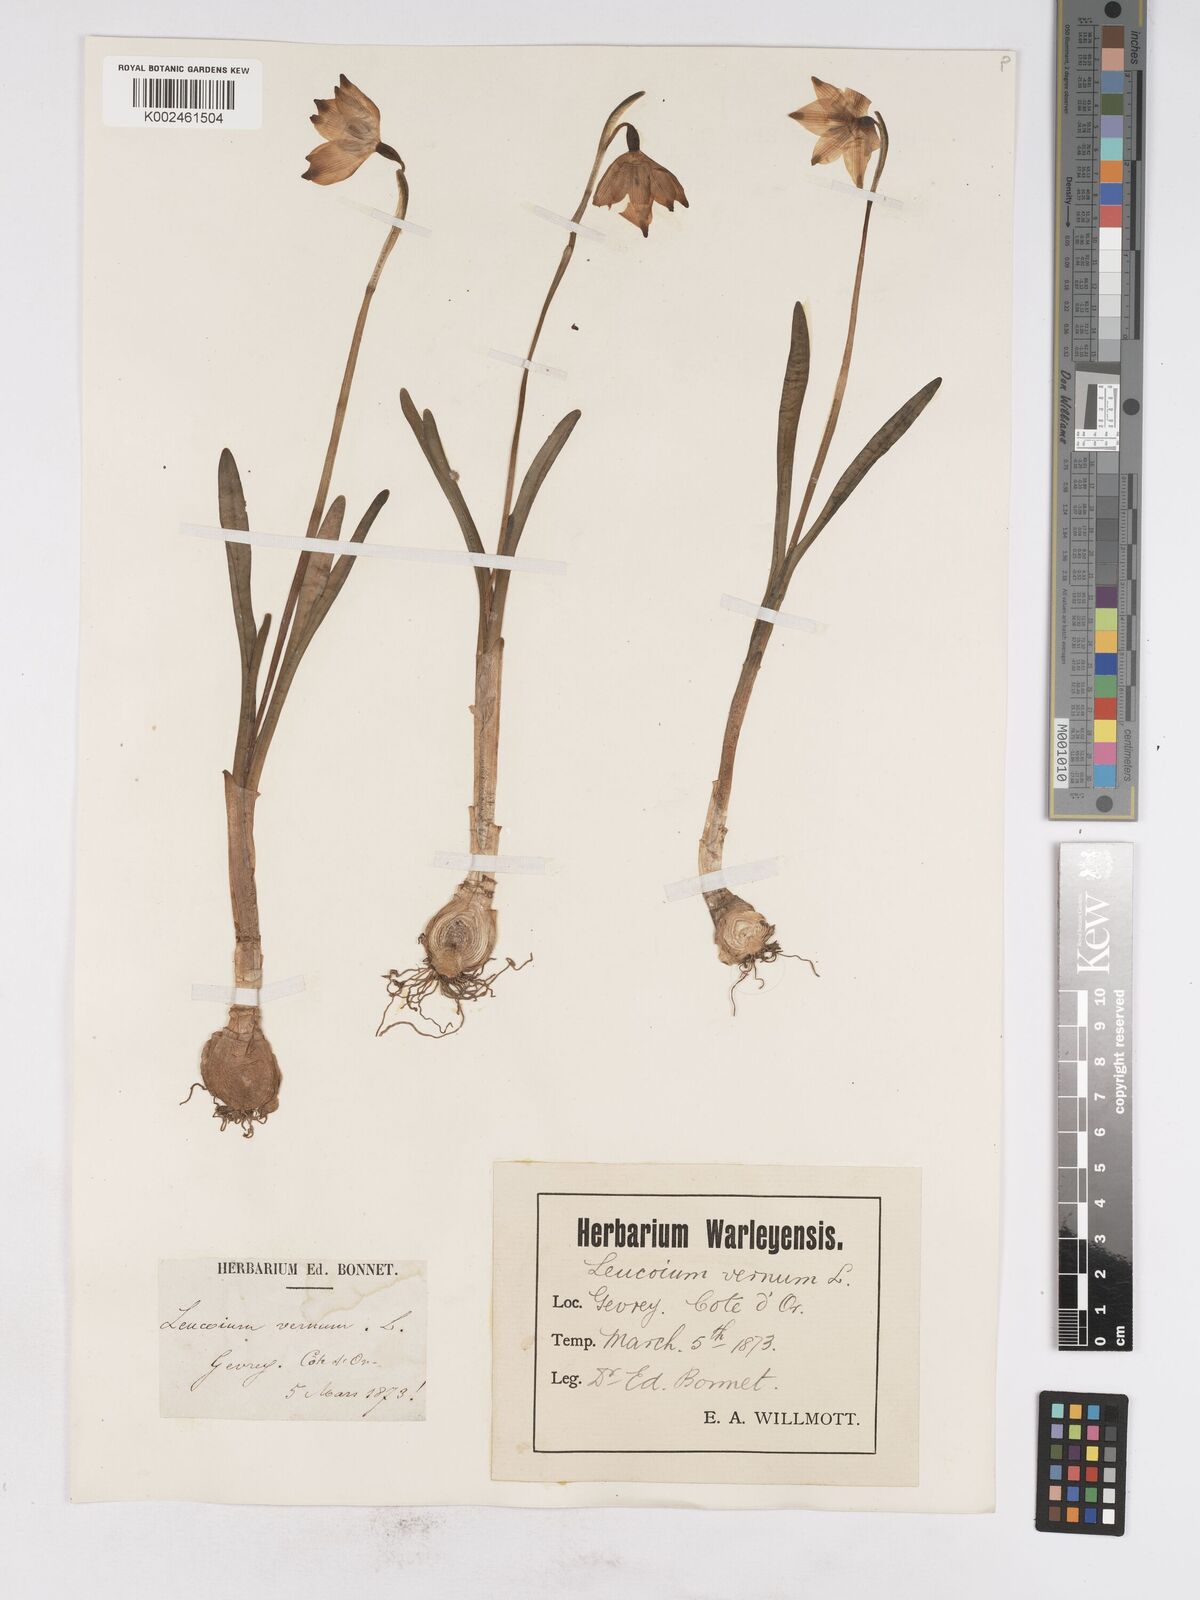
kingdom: Plantae
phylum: Tracheophyta
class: Liliopsida
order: Asparagales
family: Amaryllidaceae
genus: Leucojum
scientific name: Leucojum vernum
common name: Spring snowflake
